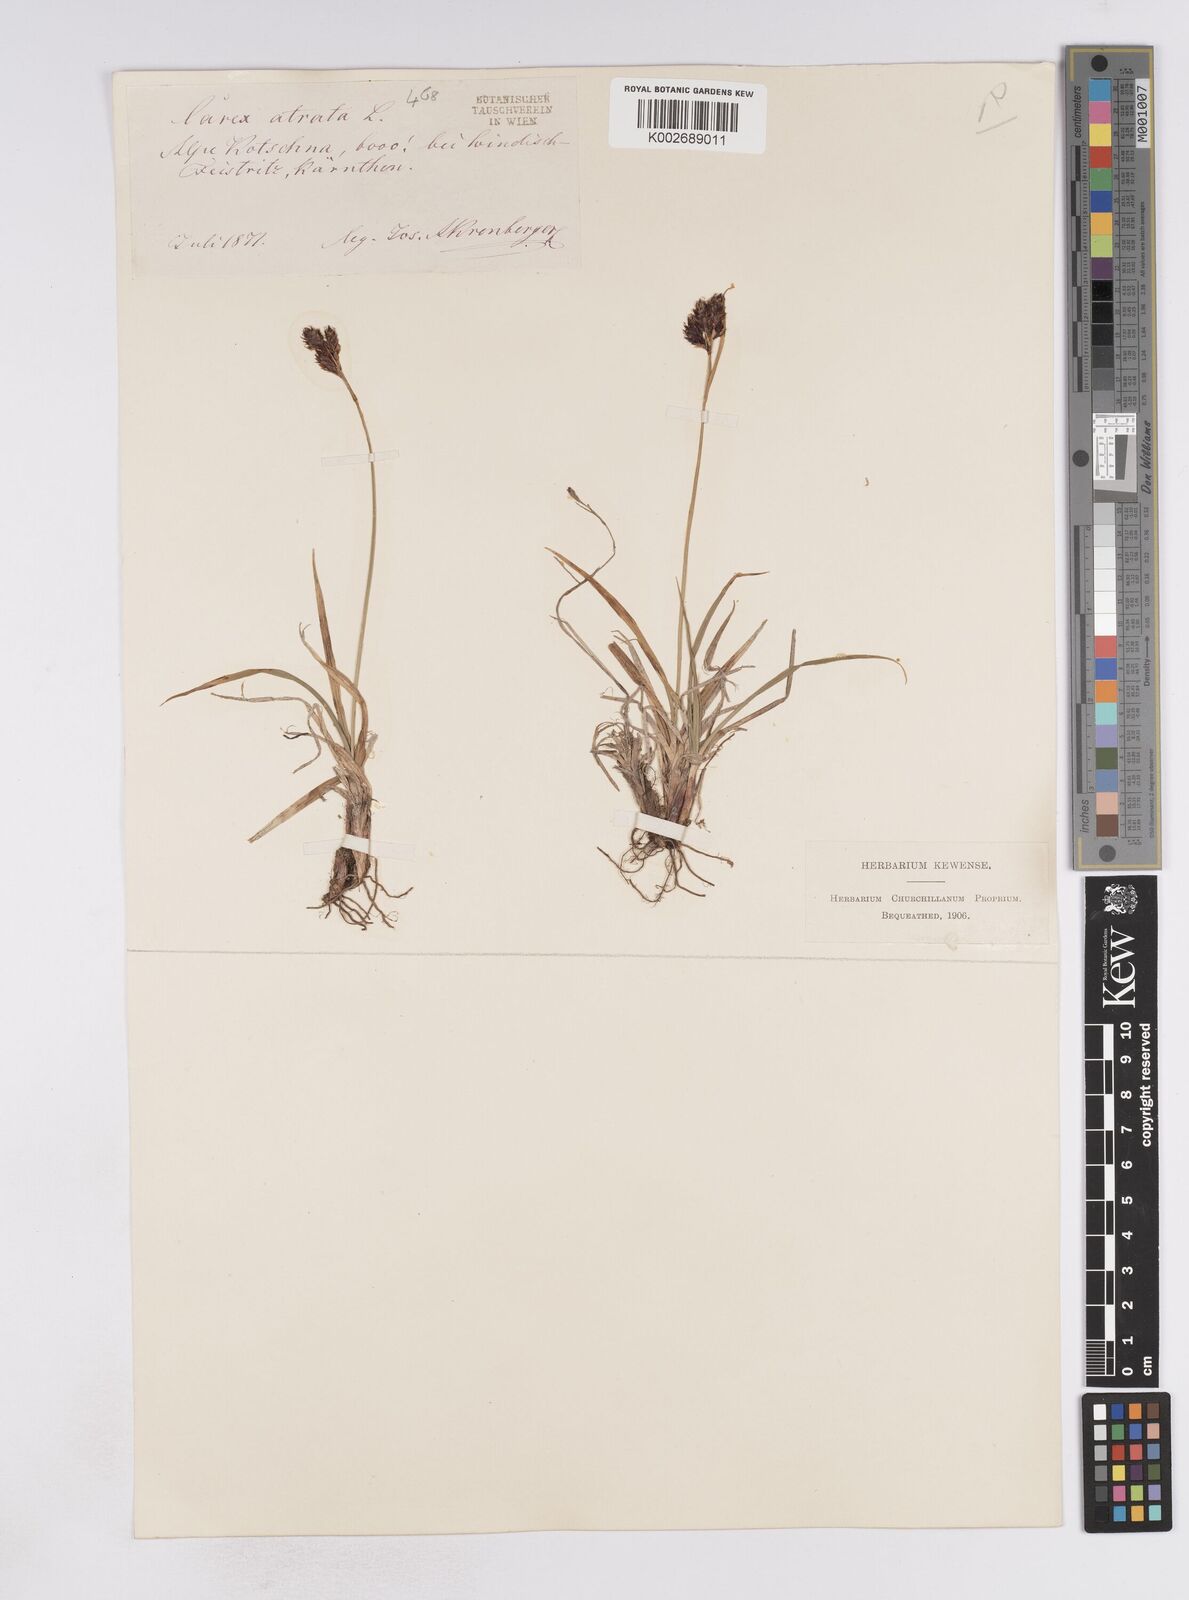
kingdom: Plantae
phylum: Tracheophyta
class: Liliopsida
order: Poales
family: Cyperaceae
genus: Carex
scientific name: Carex atrata
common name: Black alpine sedge
